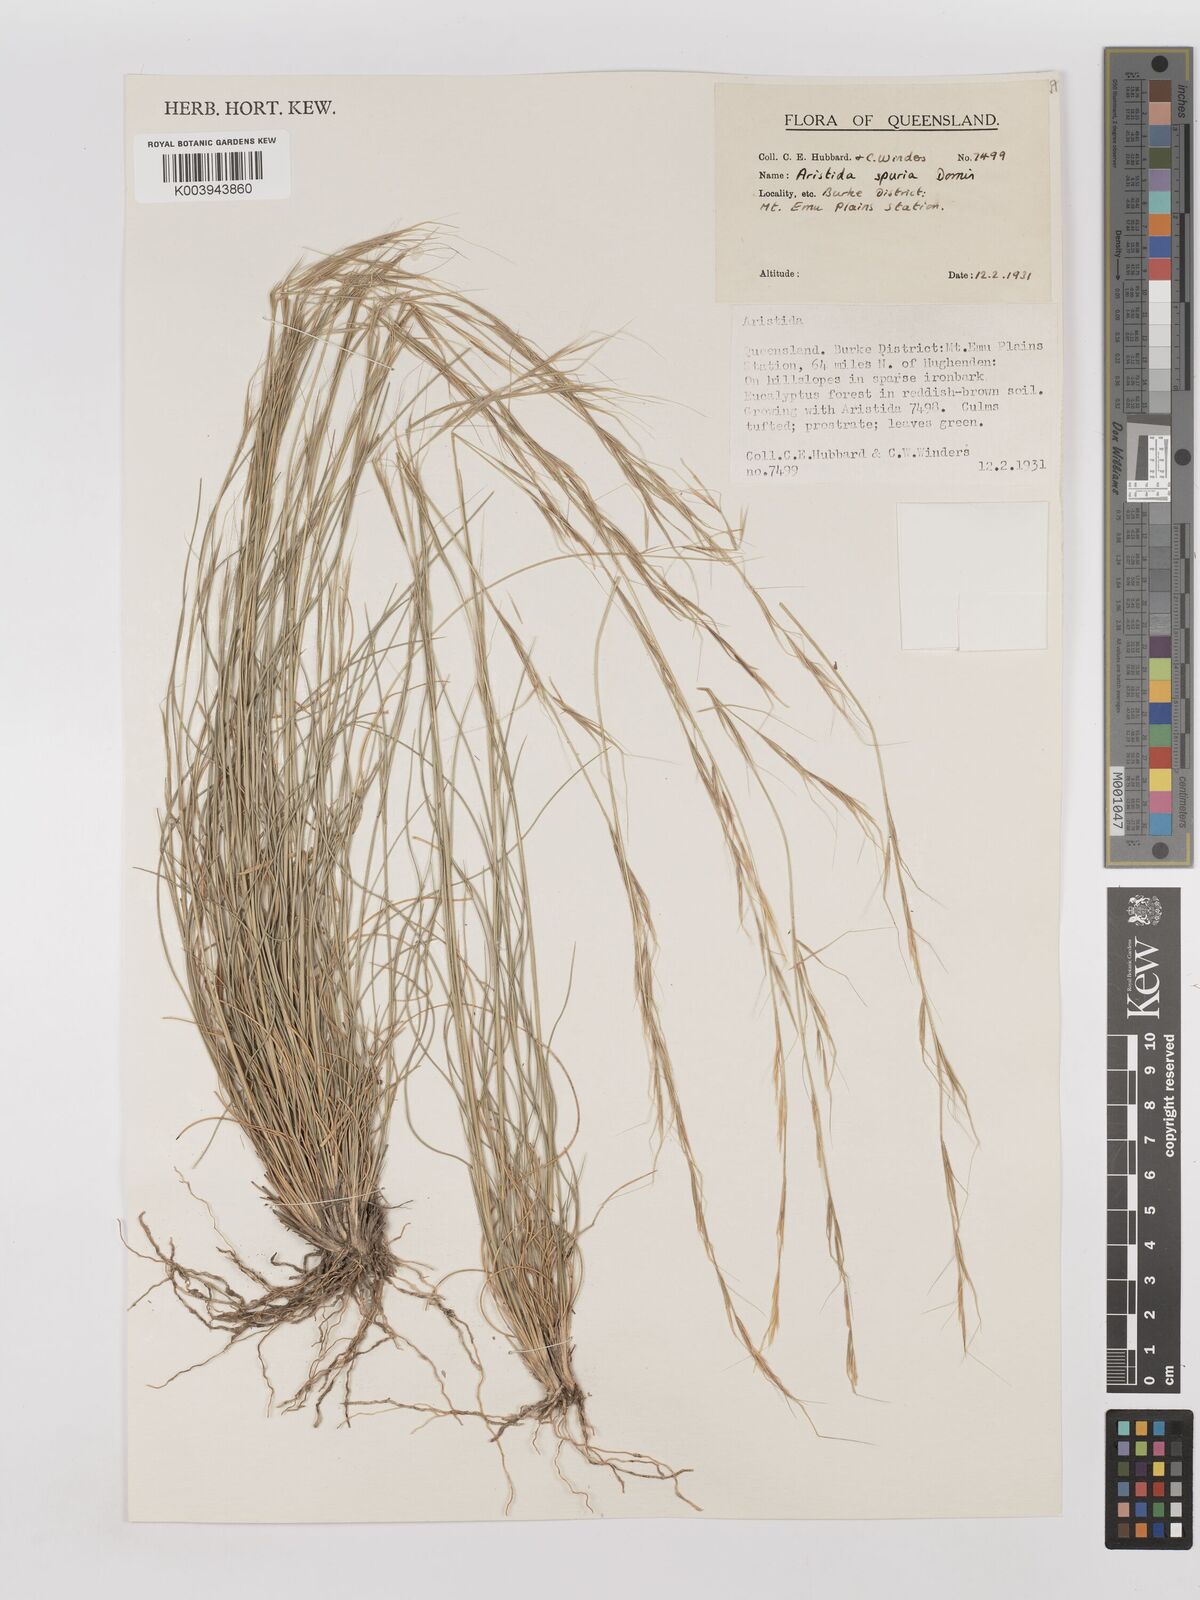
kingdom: Plantae
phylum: Tracheophyta
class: Liliopsida
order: Poales
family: Poaceae
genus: Aristida
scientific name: Aristida spuria
